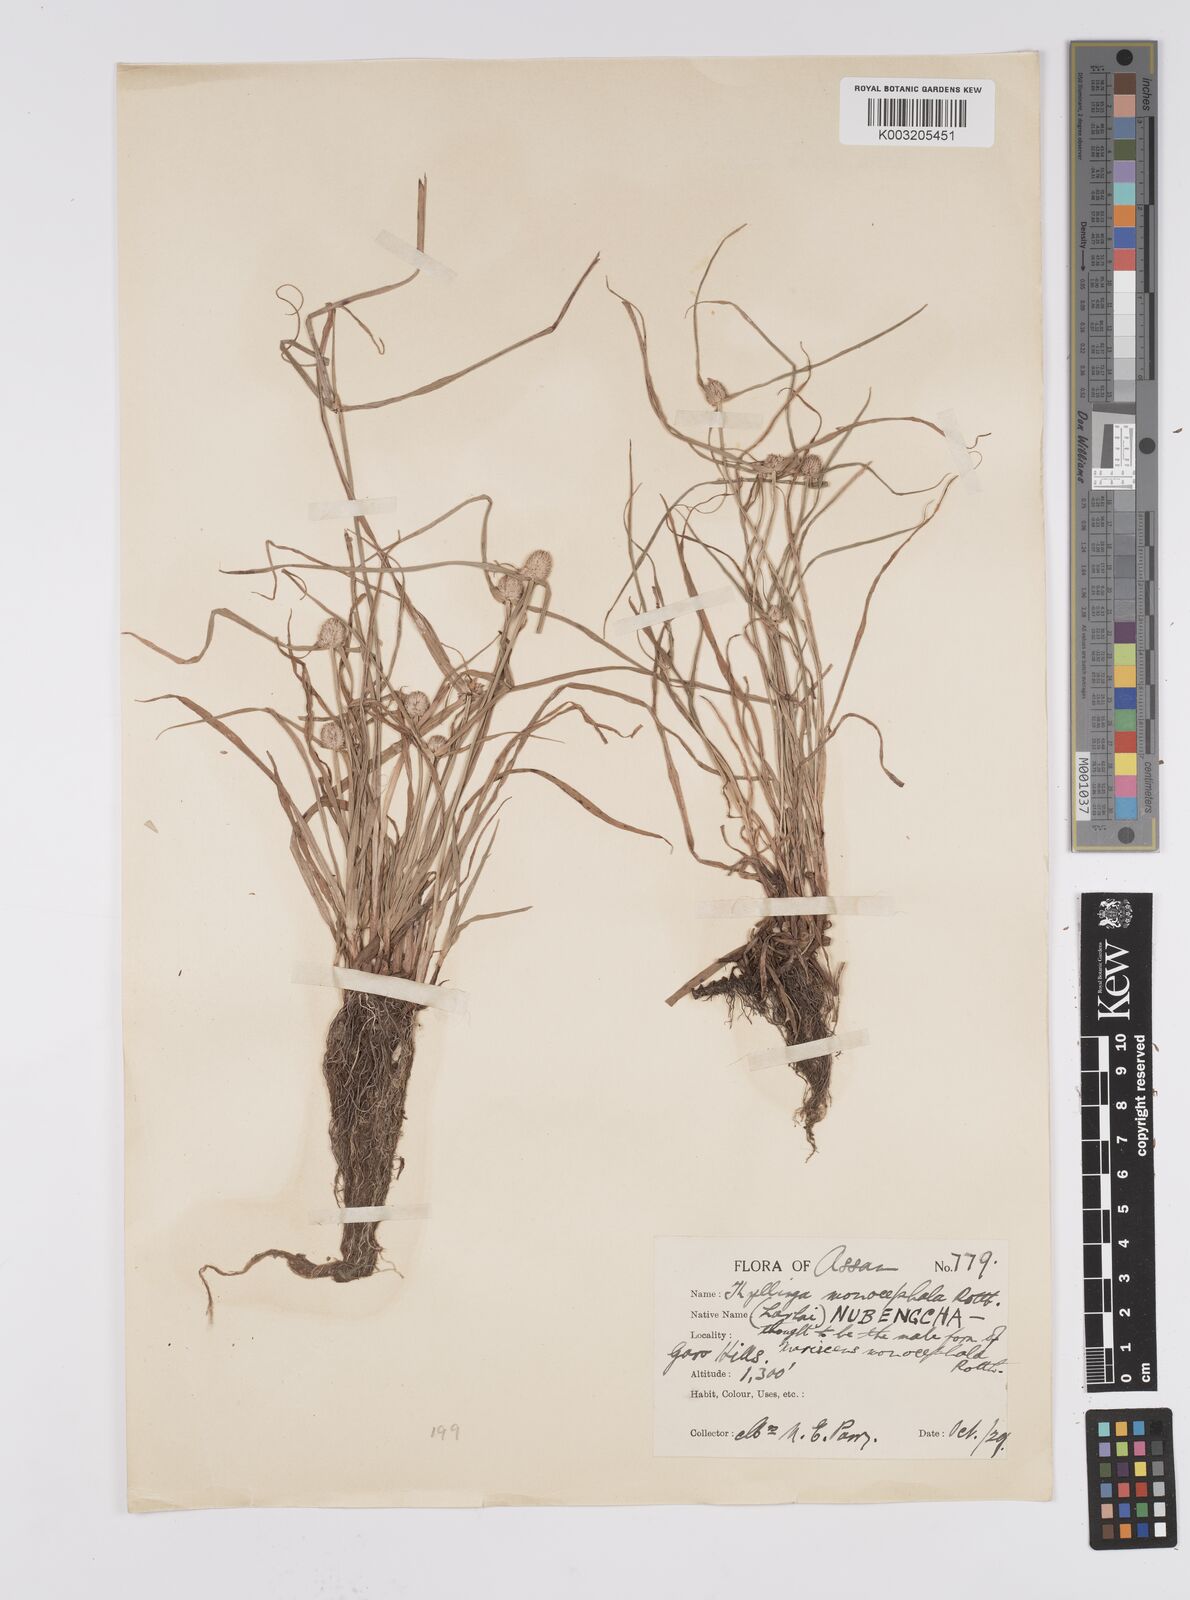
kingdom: Plantae
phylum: Tracheophyta
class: Liliopsida
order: Poales
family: Cyperaceae
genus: Cyperus
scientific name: Cyperus nemoralis
